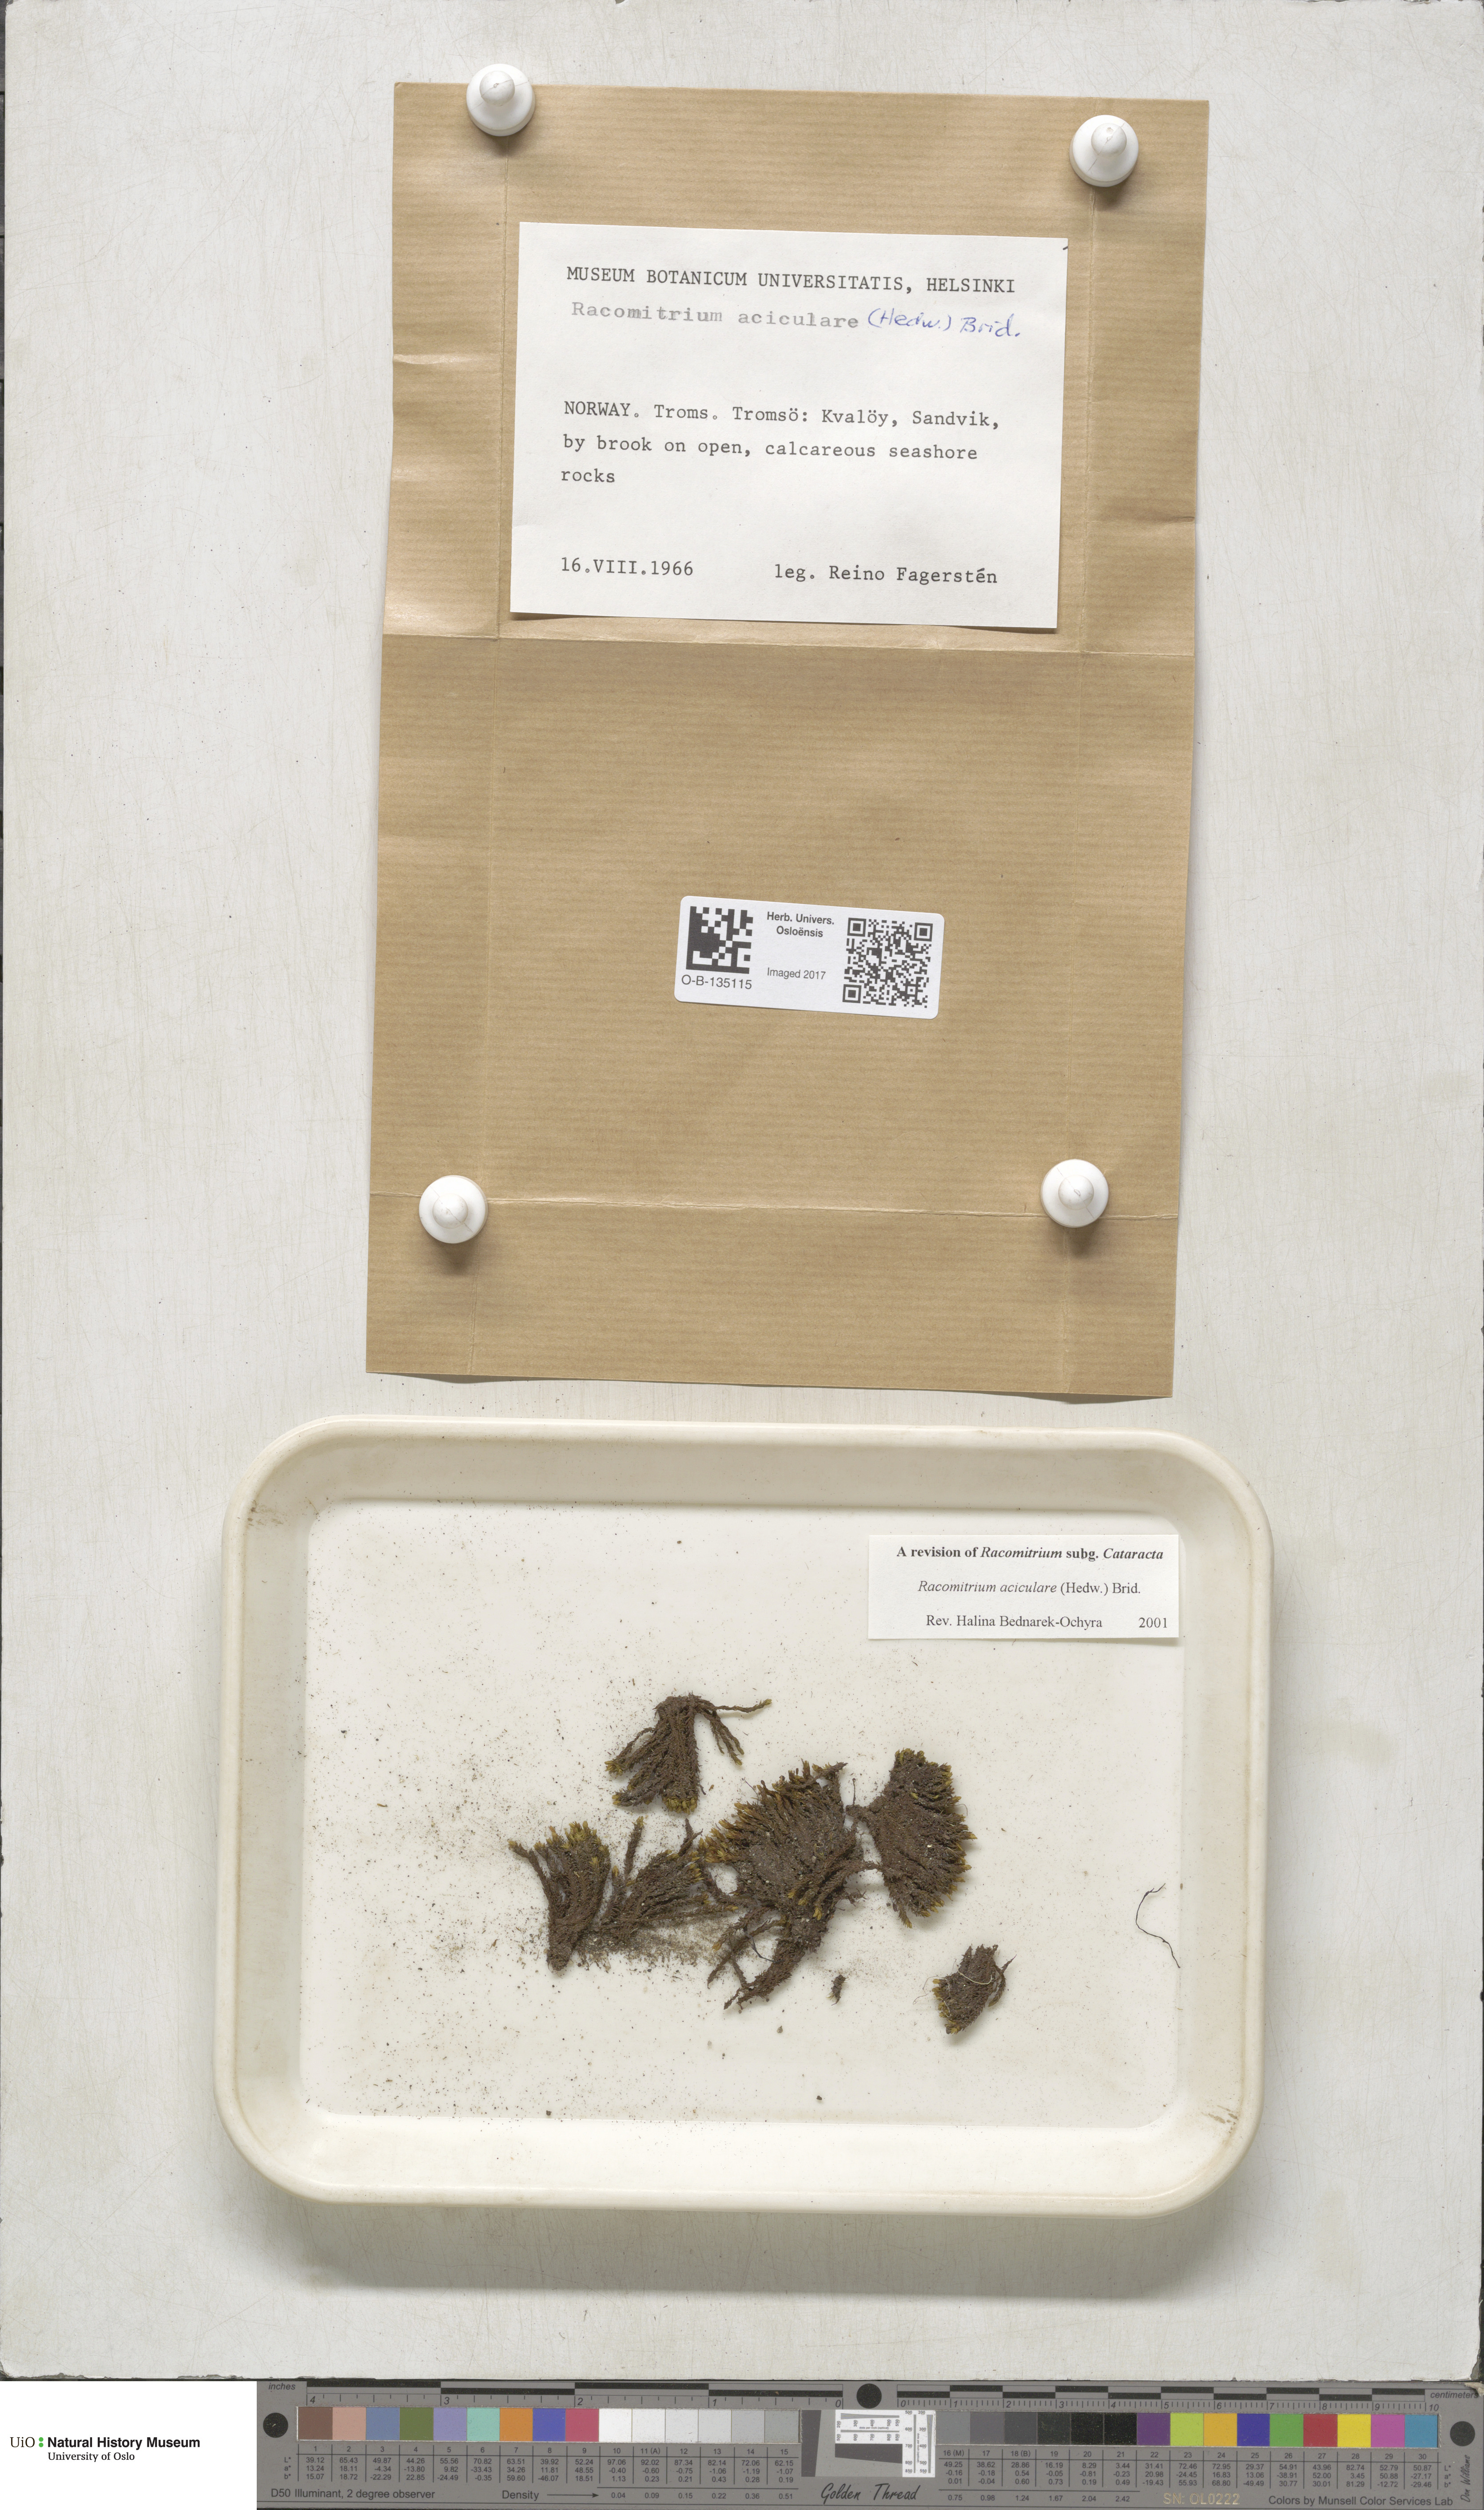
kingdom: Plantae
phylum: Bryophyta
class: Bryopsida
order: Grimmiales
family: Grimmiaceae
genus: Codriophorus
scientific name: Codriophorus acicularis
